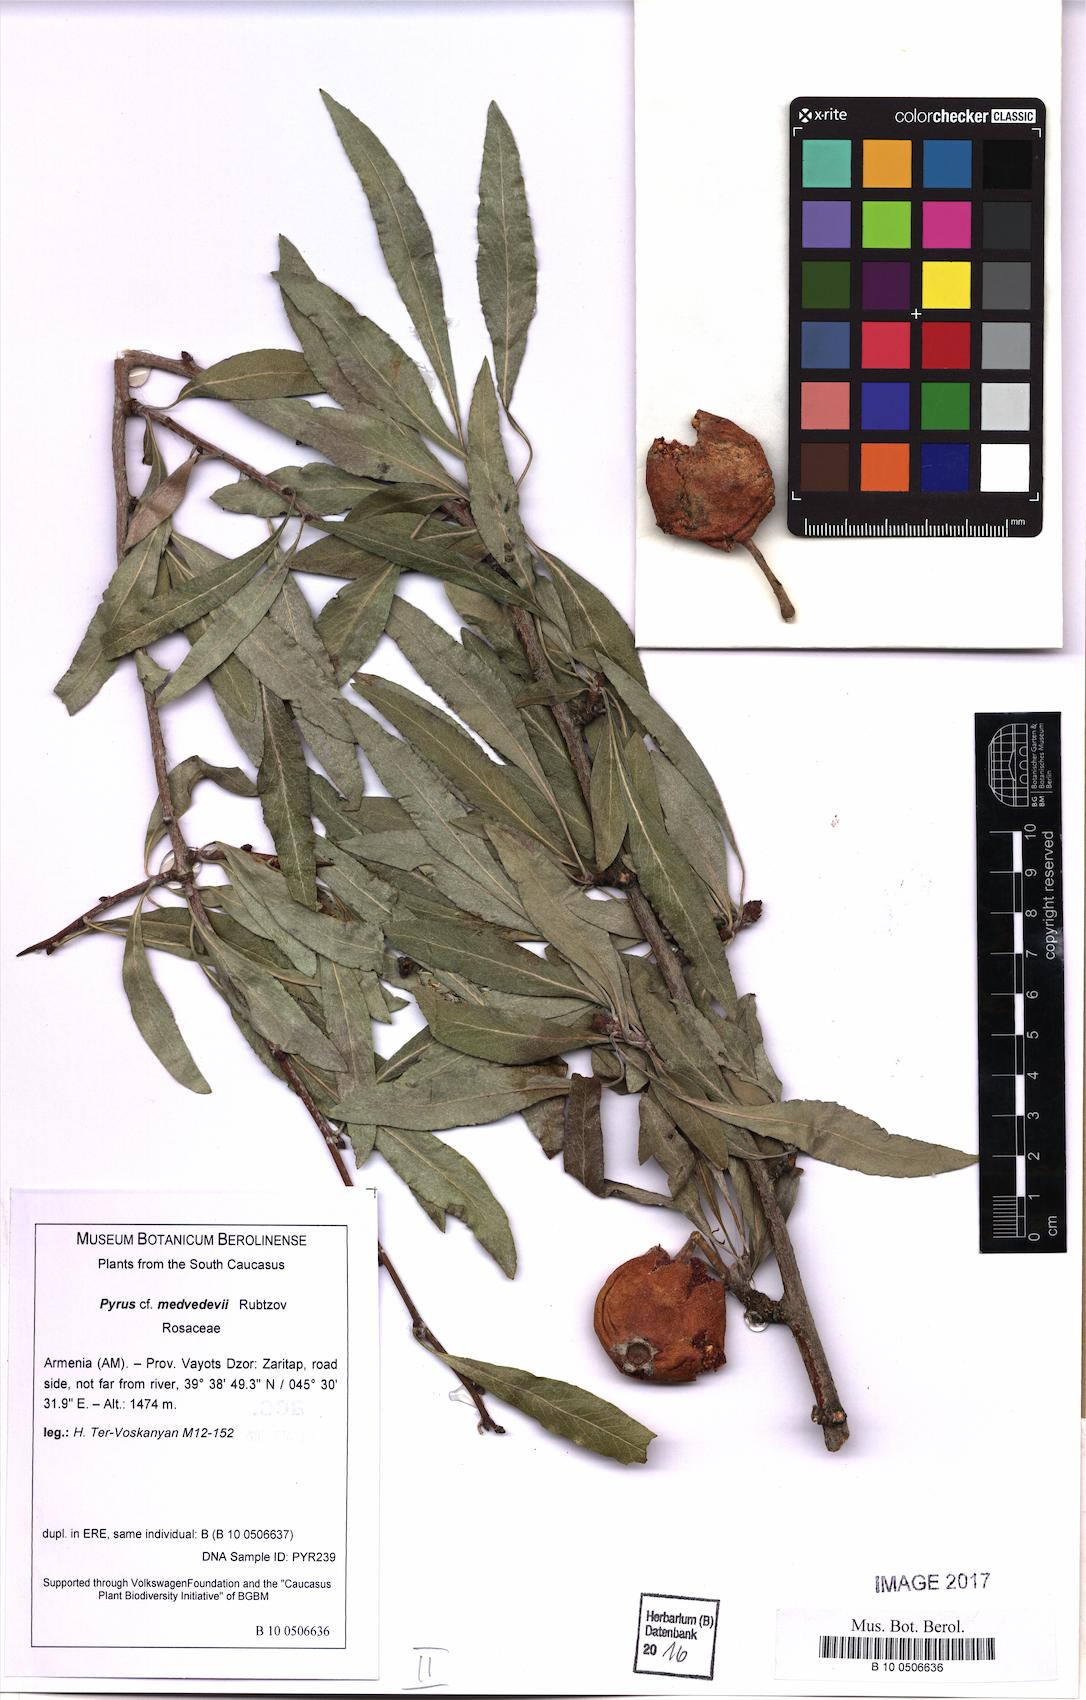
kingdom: Plantae
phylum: Tracheophyta
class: Magnoliopsida
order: Rosales
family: Rosaceae
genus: Pyrus
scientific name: Pyrus medvedevii
